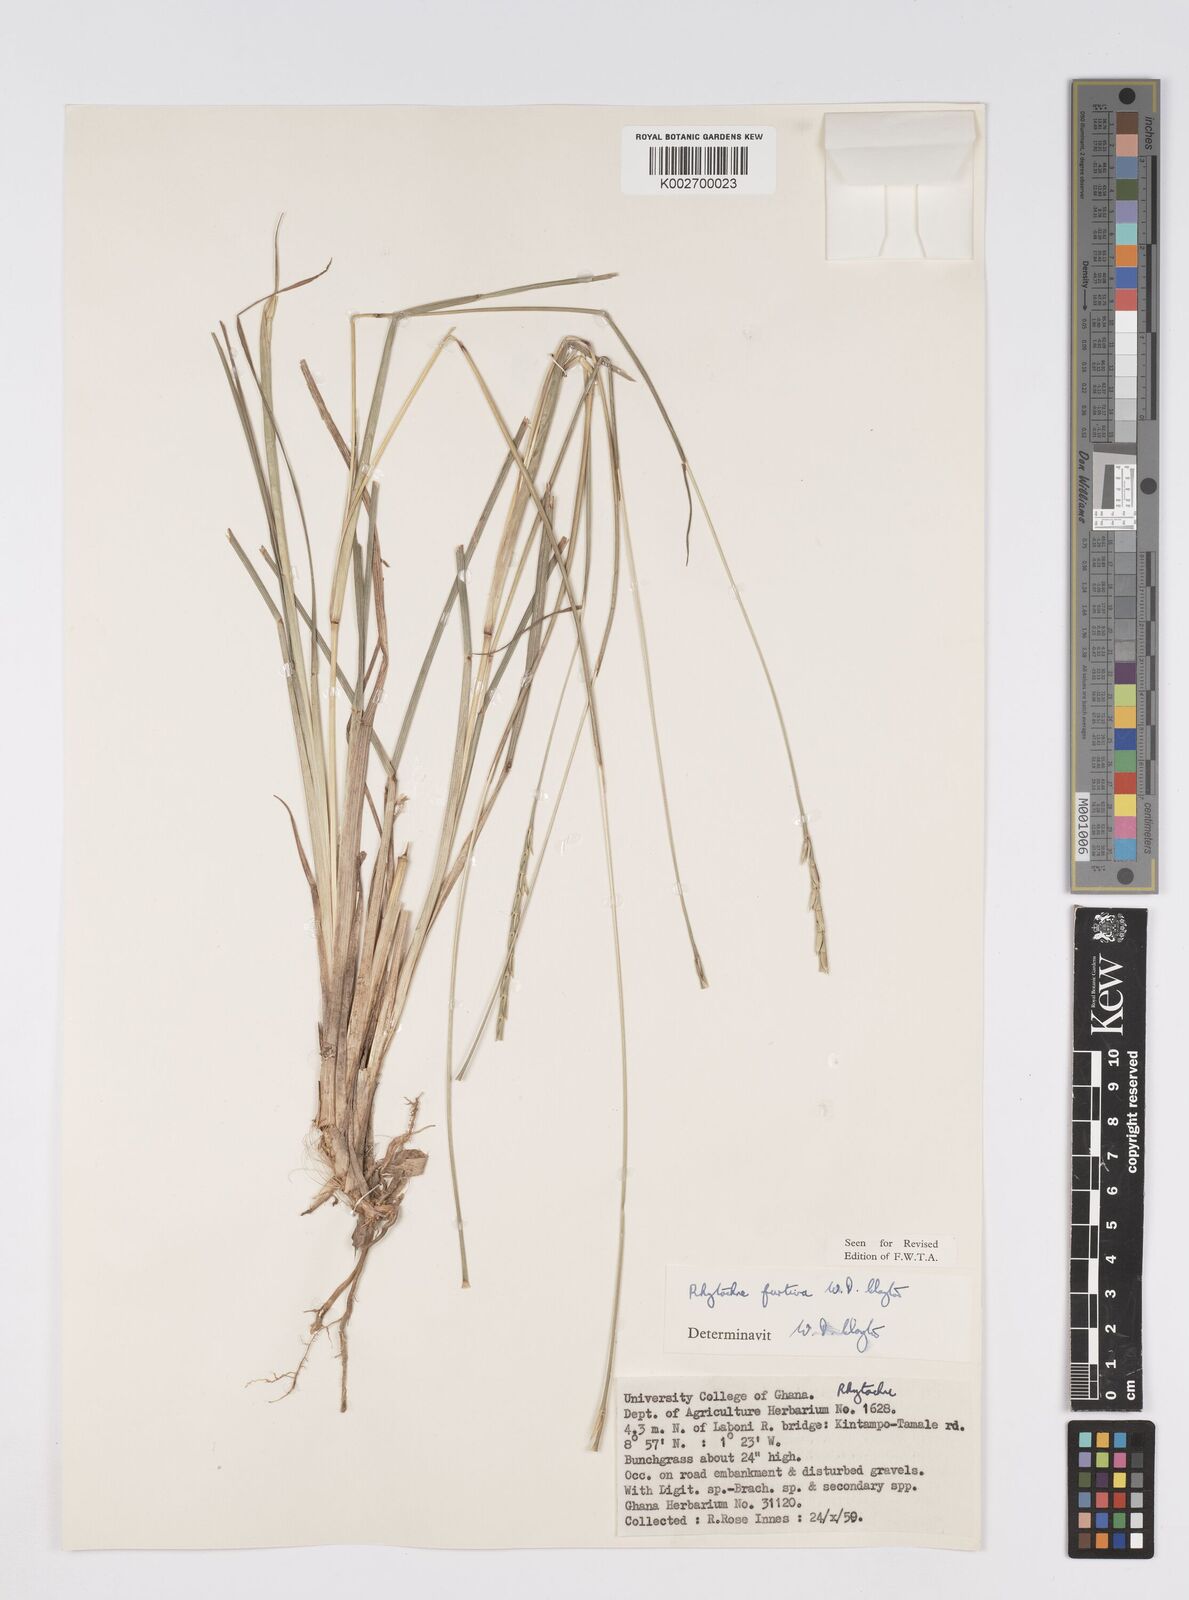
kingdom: Plantae
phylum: Tracheophyta
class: Liliopsida
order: Poales
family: Poaceae
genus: Rhytachne
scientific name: Rhytachne furtiva
